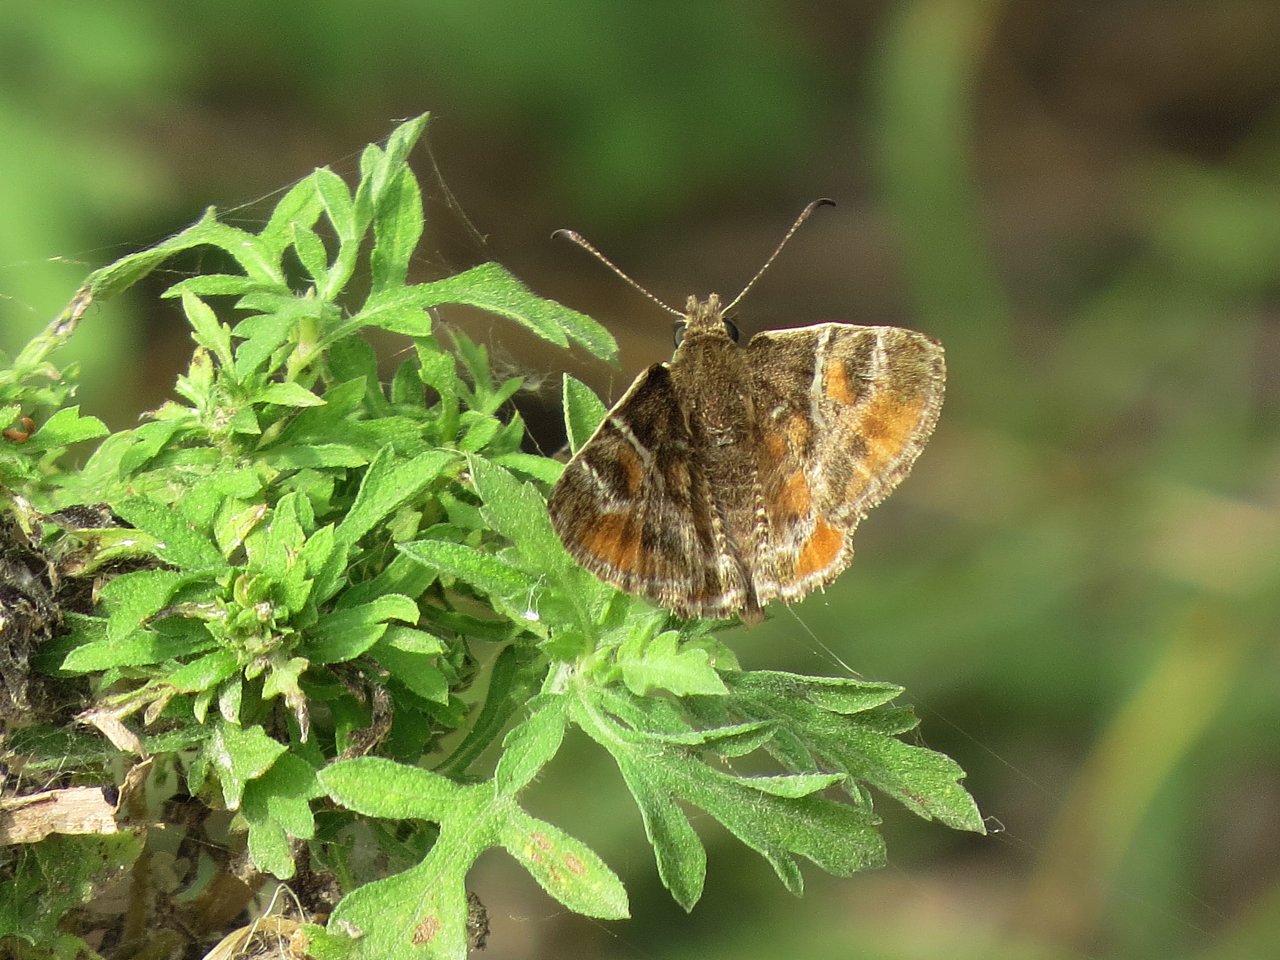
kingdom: Animalia
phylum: Arthropoda
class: Insecta
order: Lepidoptera
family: Hesperiidae
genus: Systasea
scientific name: Systasea pulverulenta
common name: Texas Powdered-Skipper
